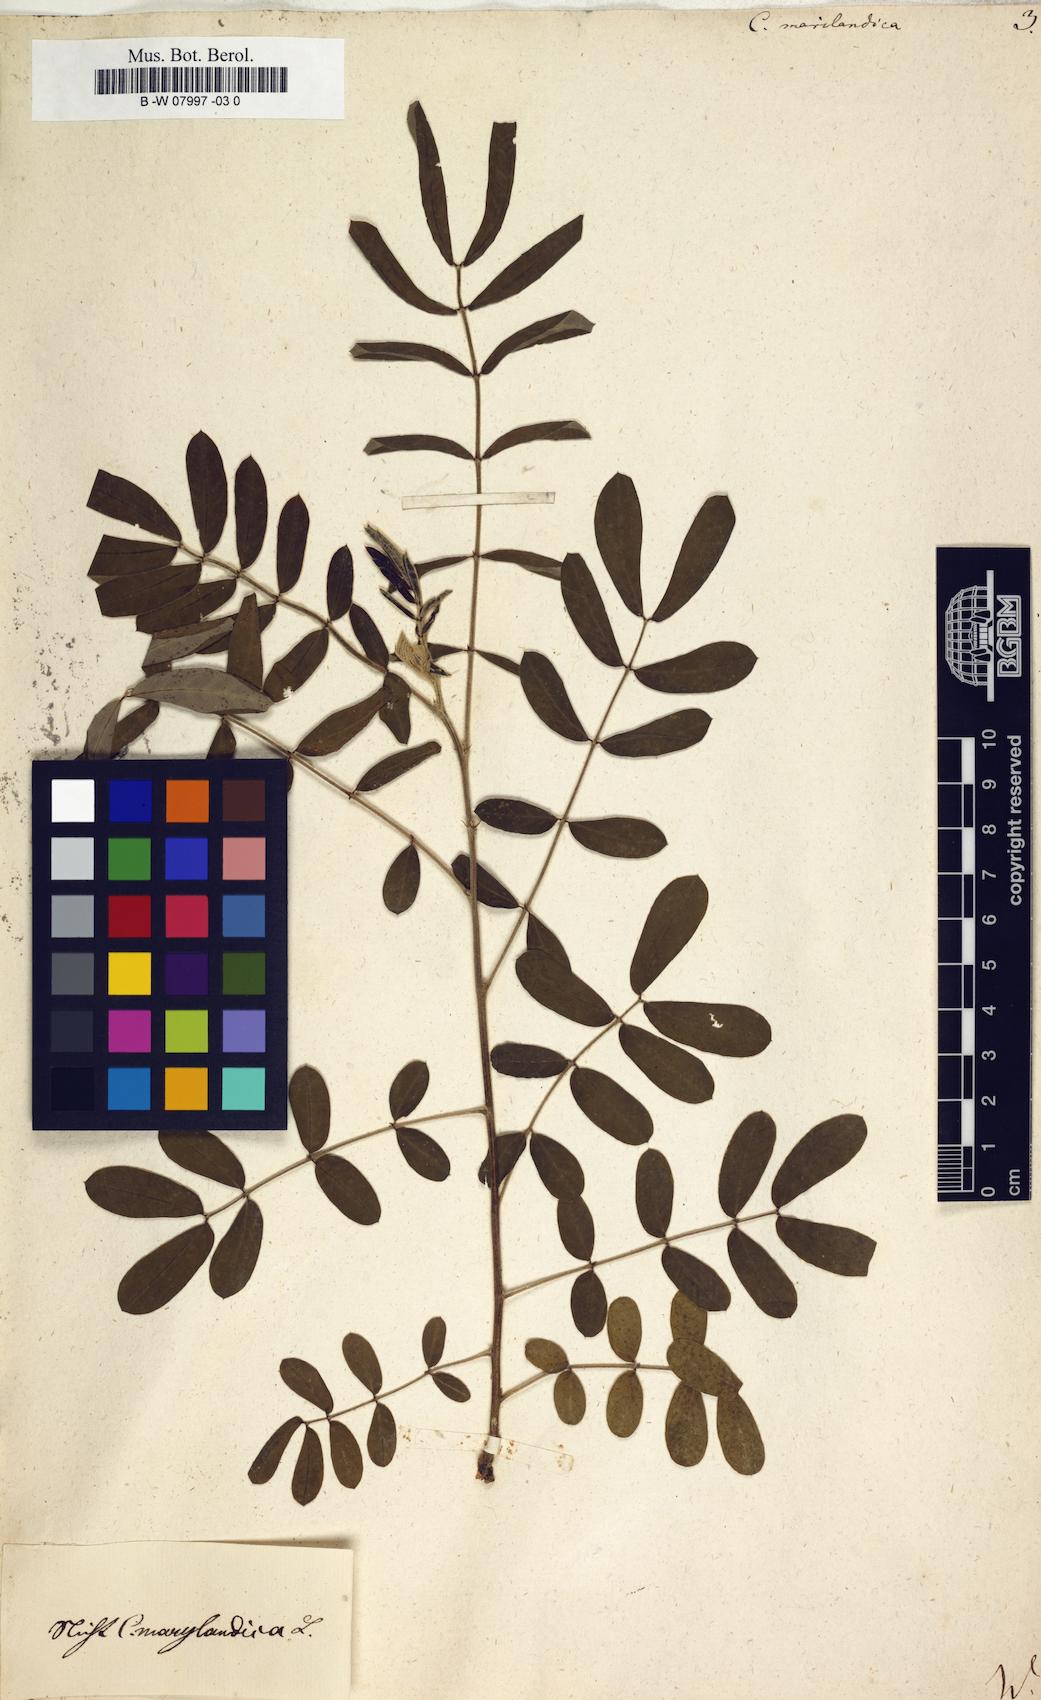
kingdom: Plantae
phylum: Tracheophyta
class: Magnoliopsida
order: Fabales
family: Fabaceae
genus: Senna
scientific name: Senna marilandica
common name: American senna
